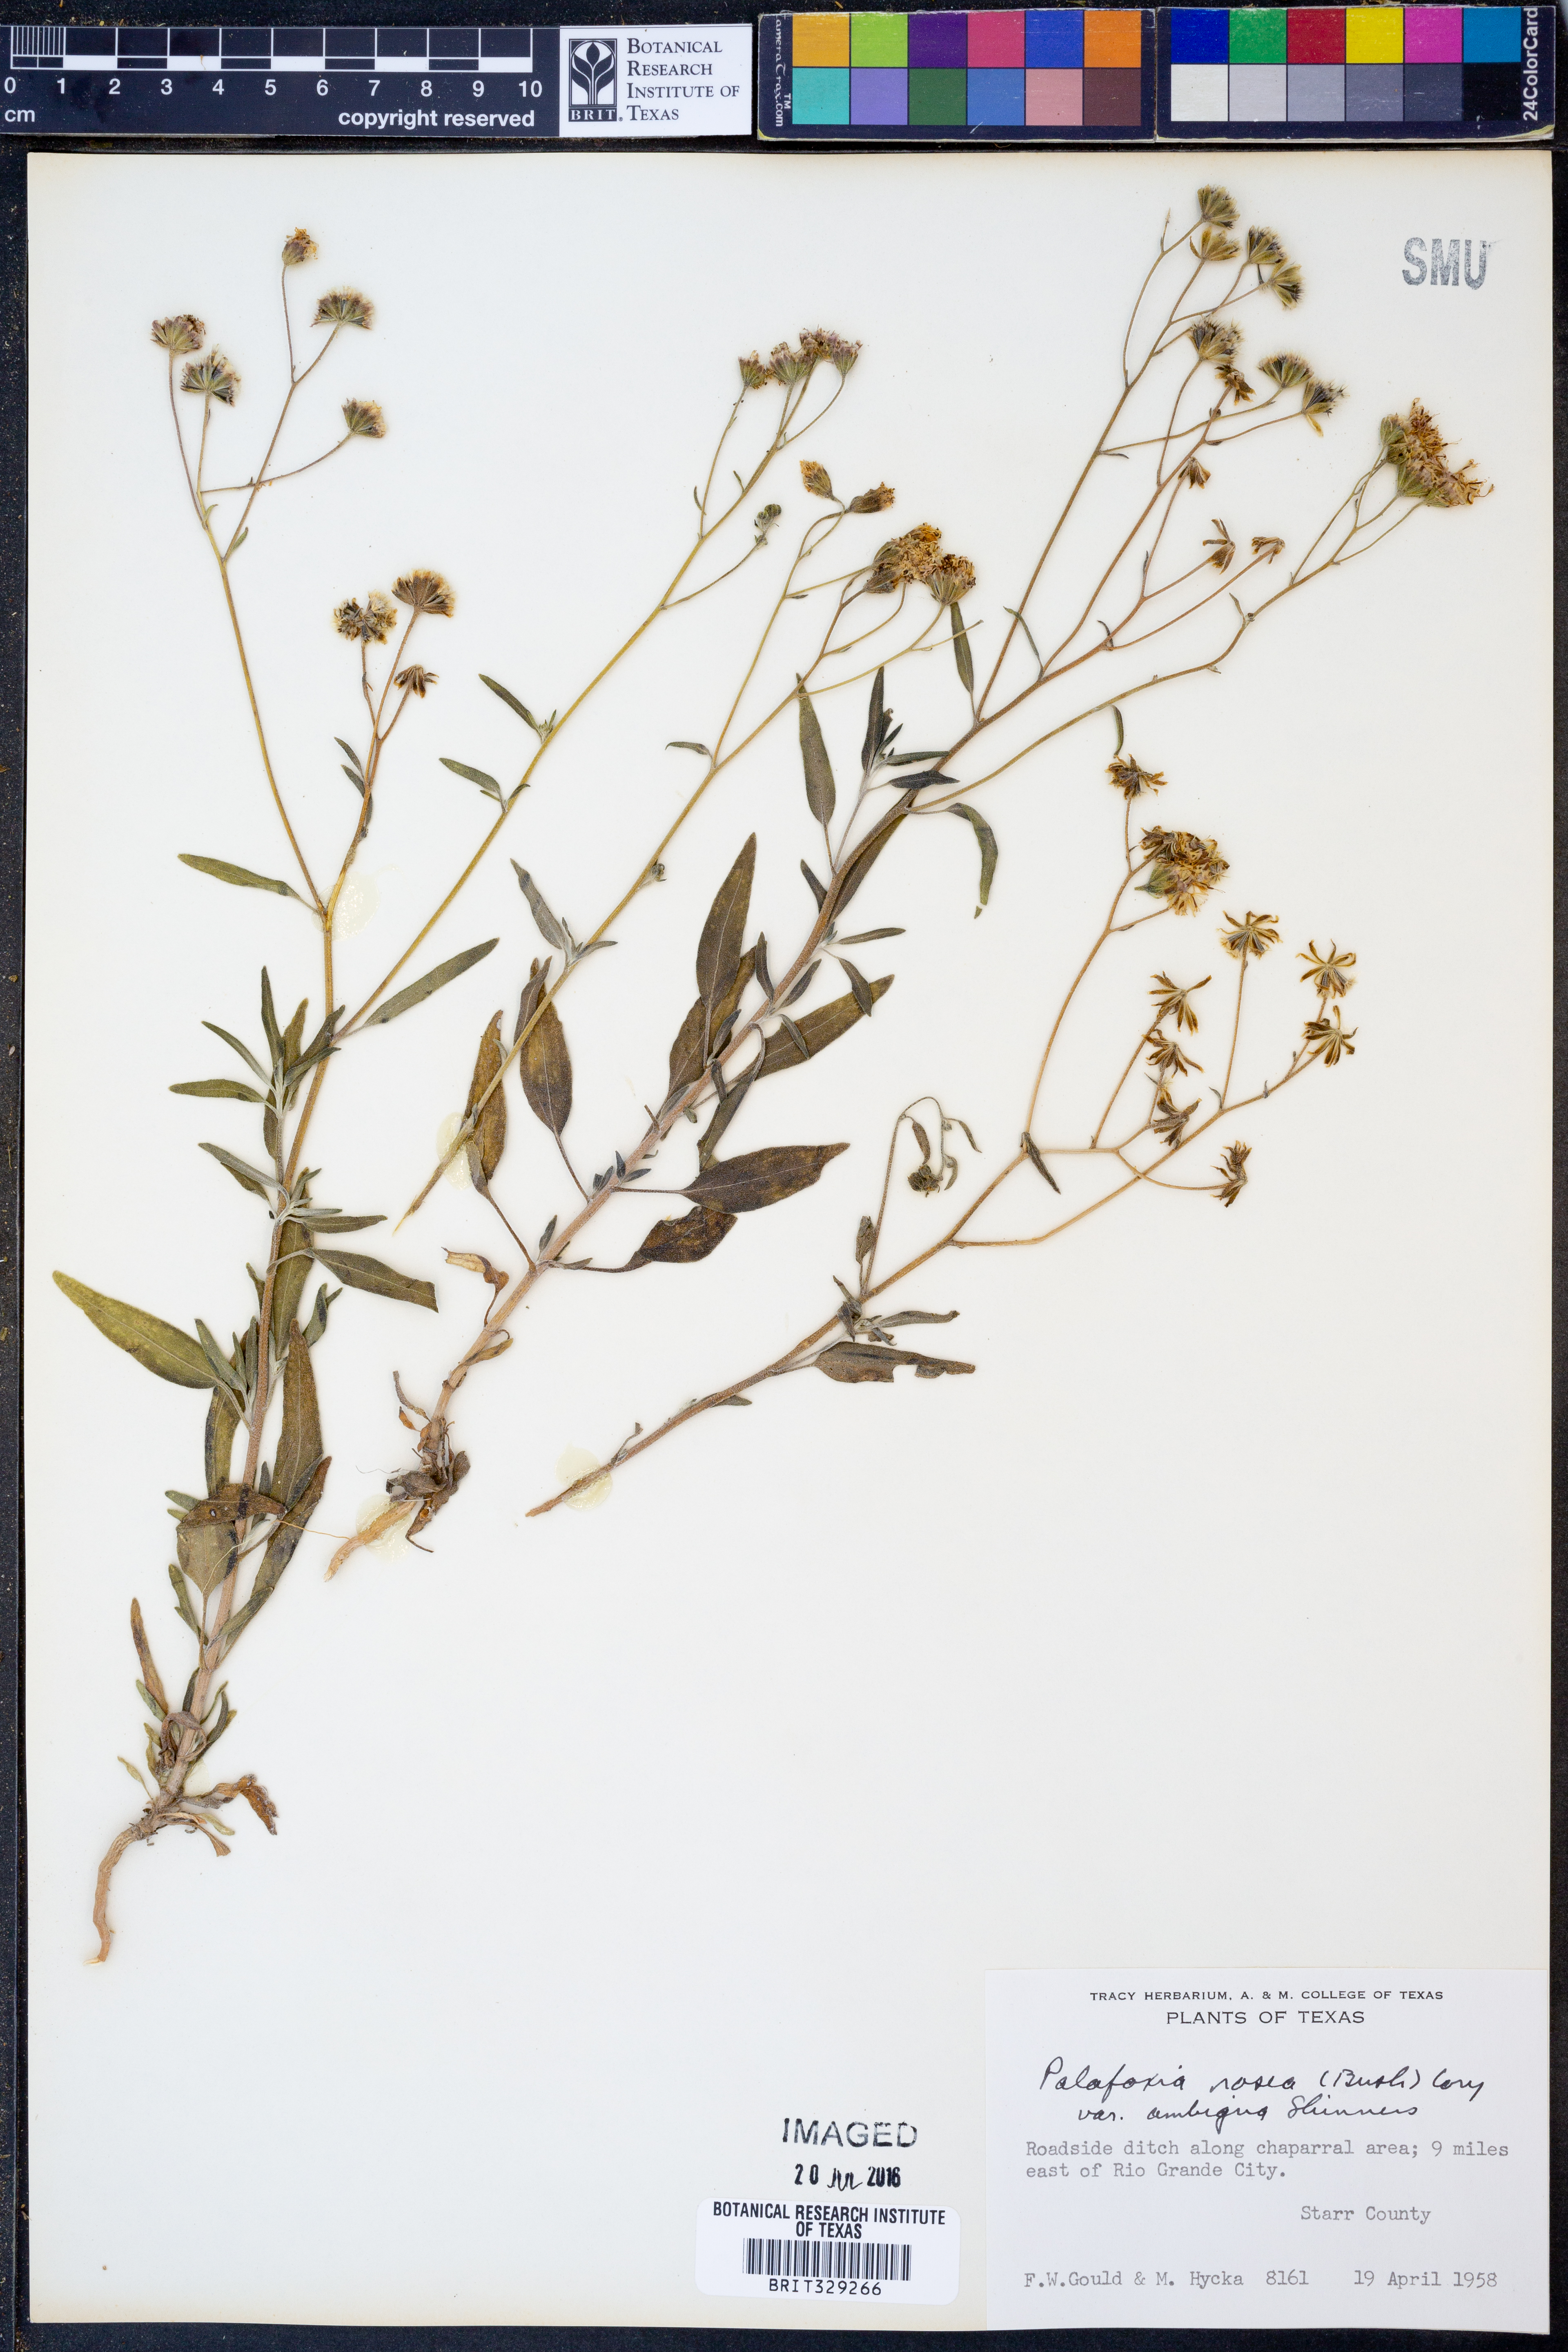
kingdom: Plantae
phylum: Tracheophyta
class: Magnoliopsida
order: Asterales
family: Asteraceae
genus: Palafoxia
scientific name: Palafoxia texana
